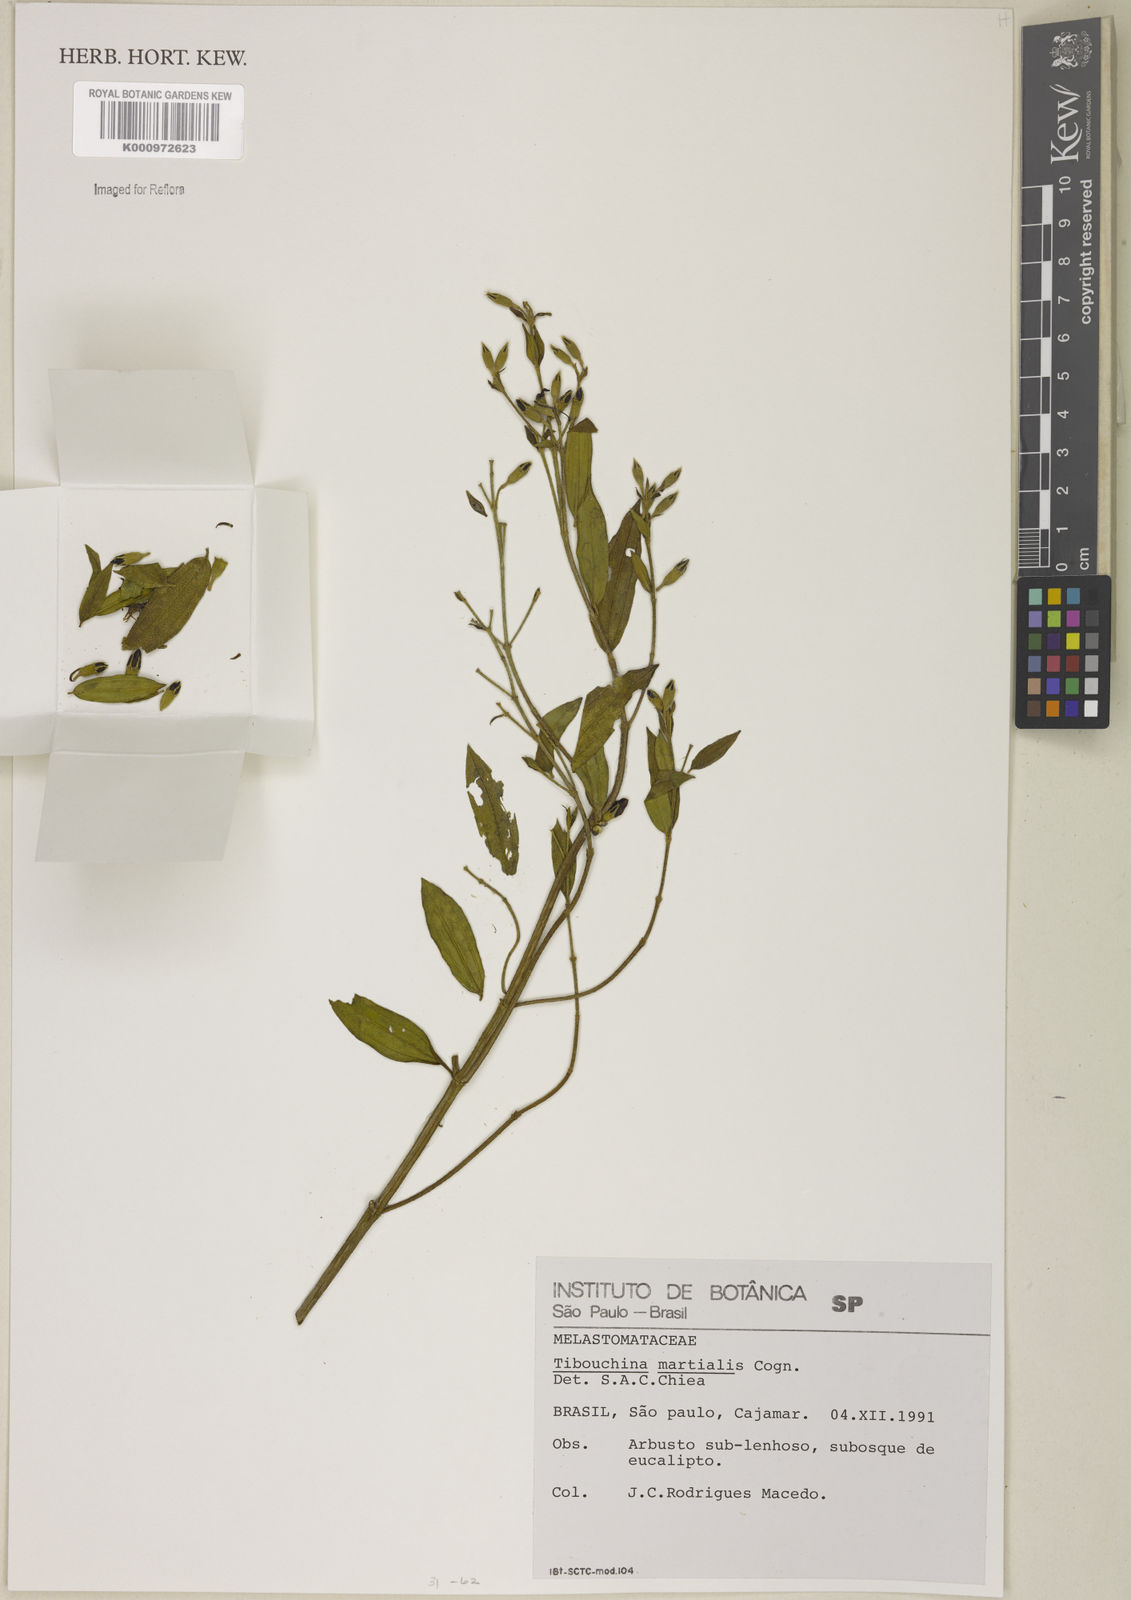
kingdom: Plantae
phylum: Tracheophyta
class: Magnoliopsida
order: Myrtales
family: Melastomataceae
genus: Pleroma
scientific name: Pleroma martiale
